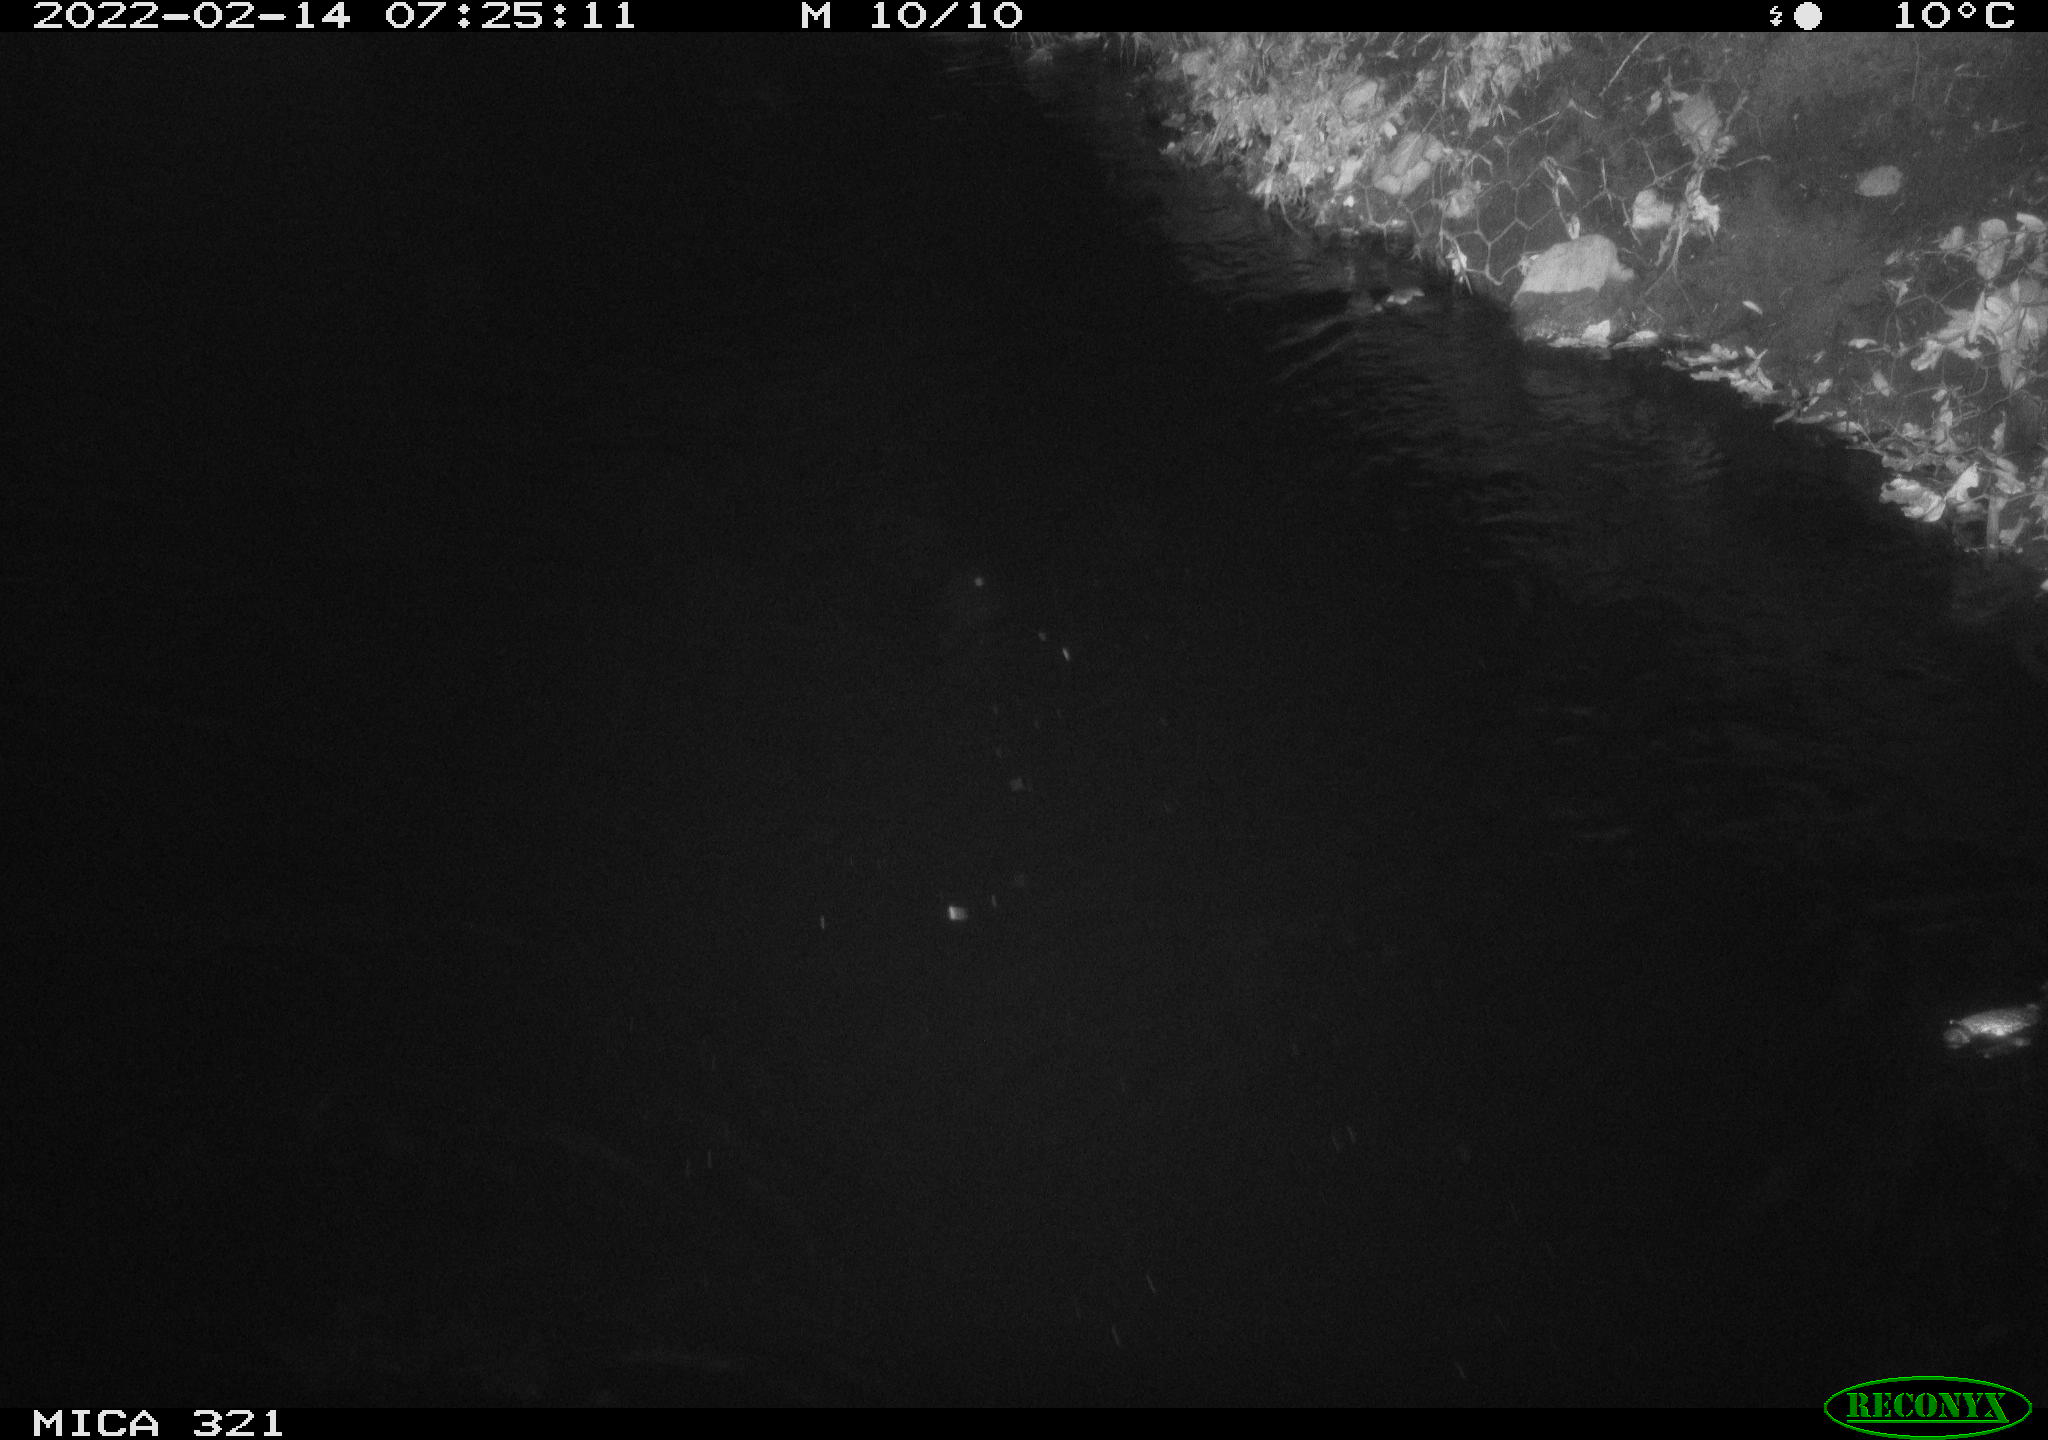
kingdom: Animalia
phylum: Chordata
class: Aves
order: Anseriformes
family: Anatidae
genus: Anas
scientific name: Anas platyrhynchos
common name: Mallard
